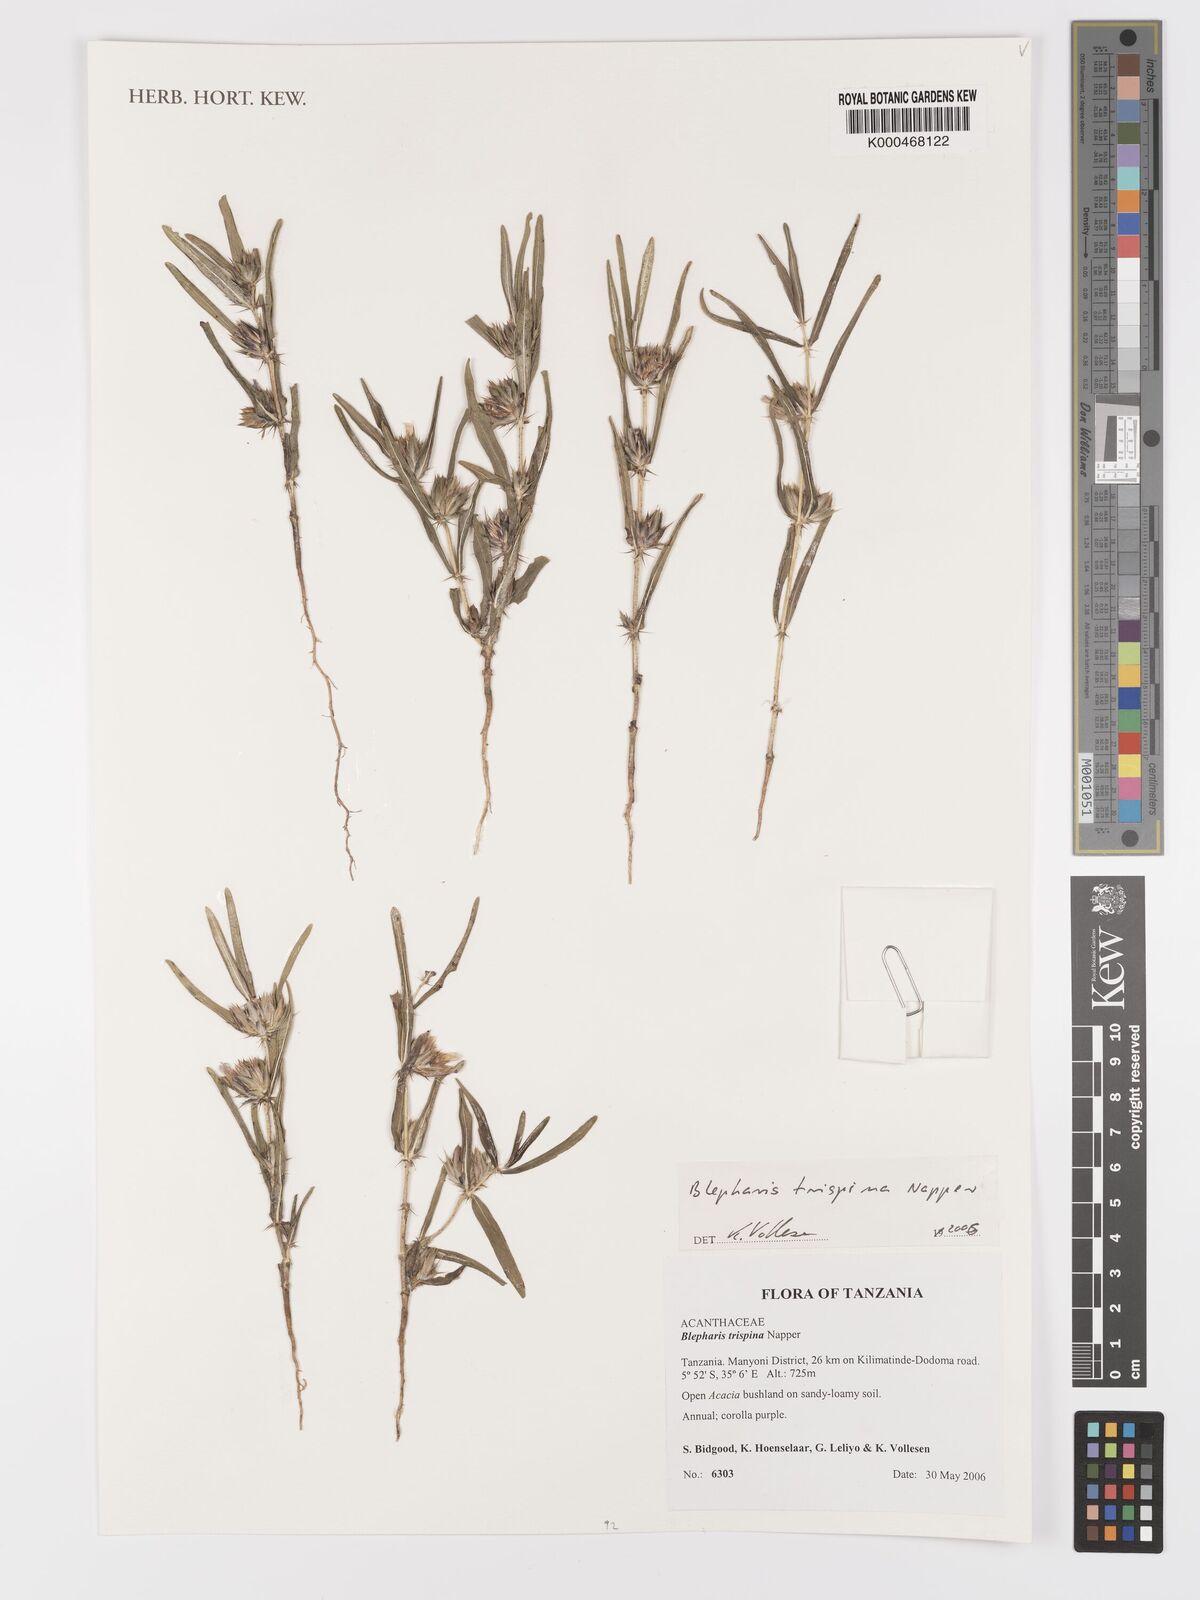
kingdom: Plantae
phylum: Tracheophyta
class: Magnoliopsida
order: Lamiales
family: Acanthaceae
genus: Blepharis
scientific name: Blepharis trispina
